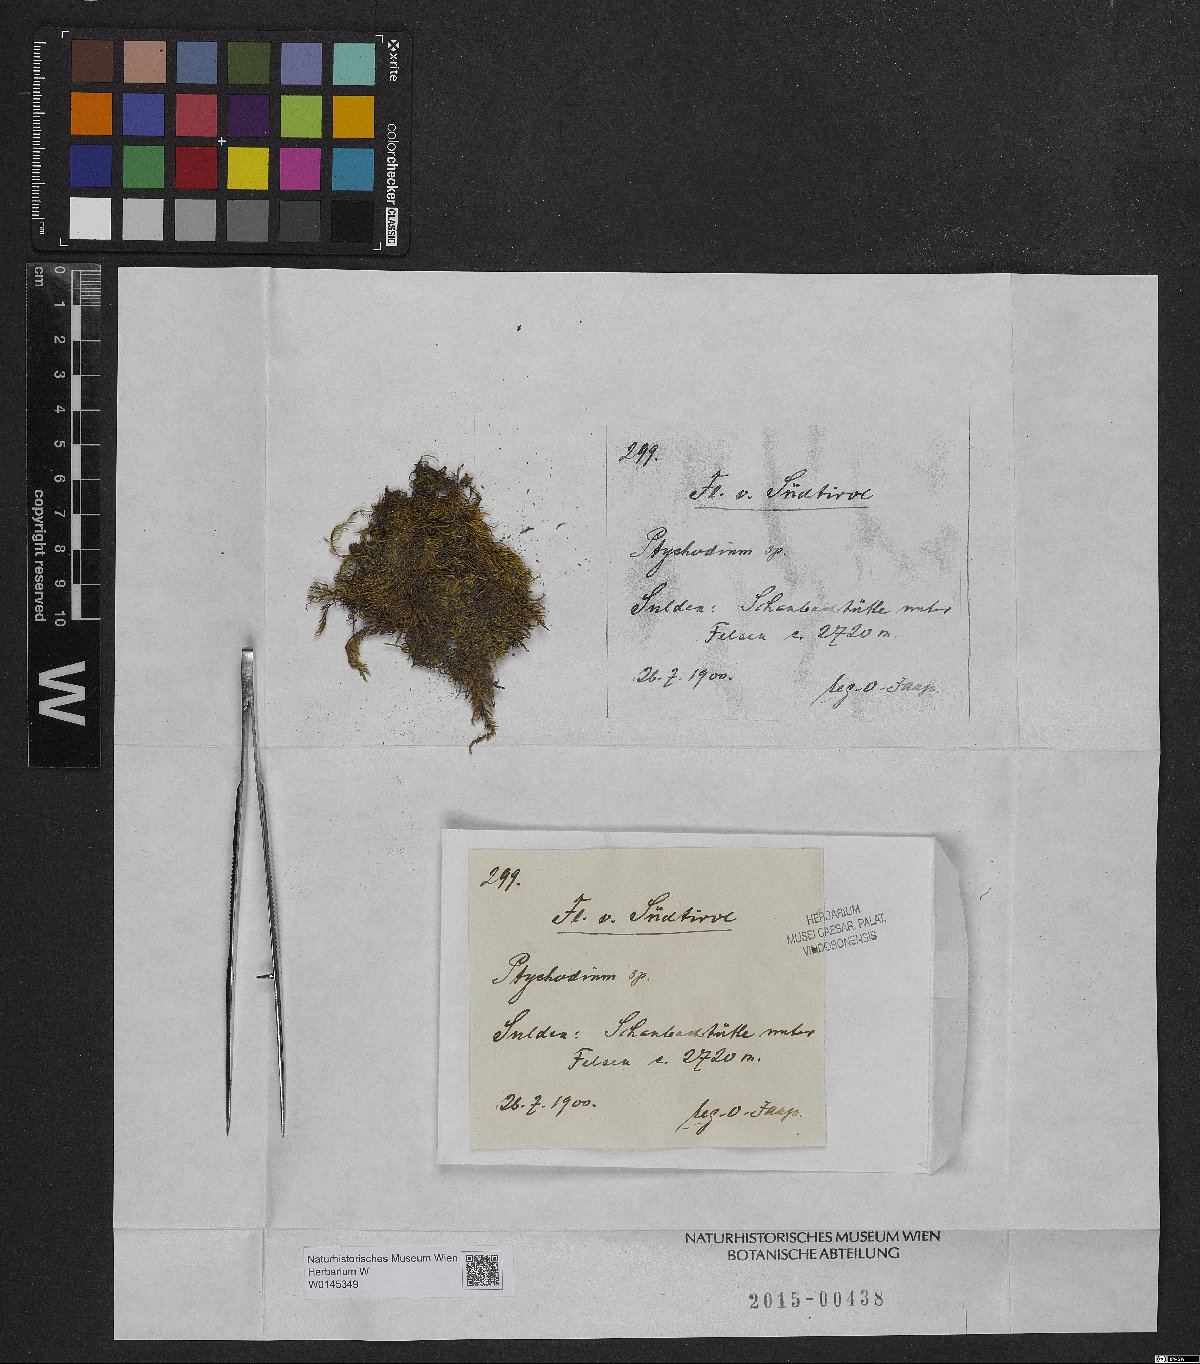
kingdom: Plantae
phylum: Bryophyta
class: Bryopsida
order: Hypnales
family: Pseudoleskeaceae
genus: Lescuraea
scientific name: Lescuraea
